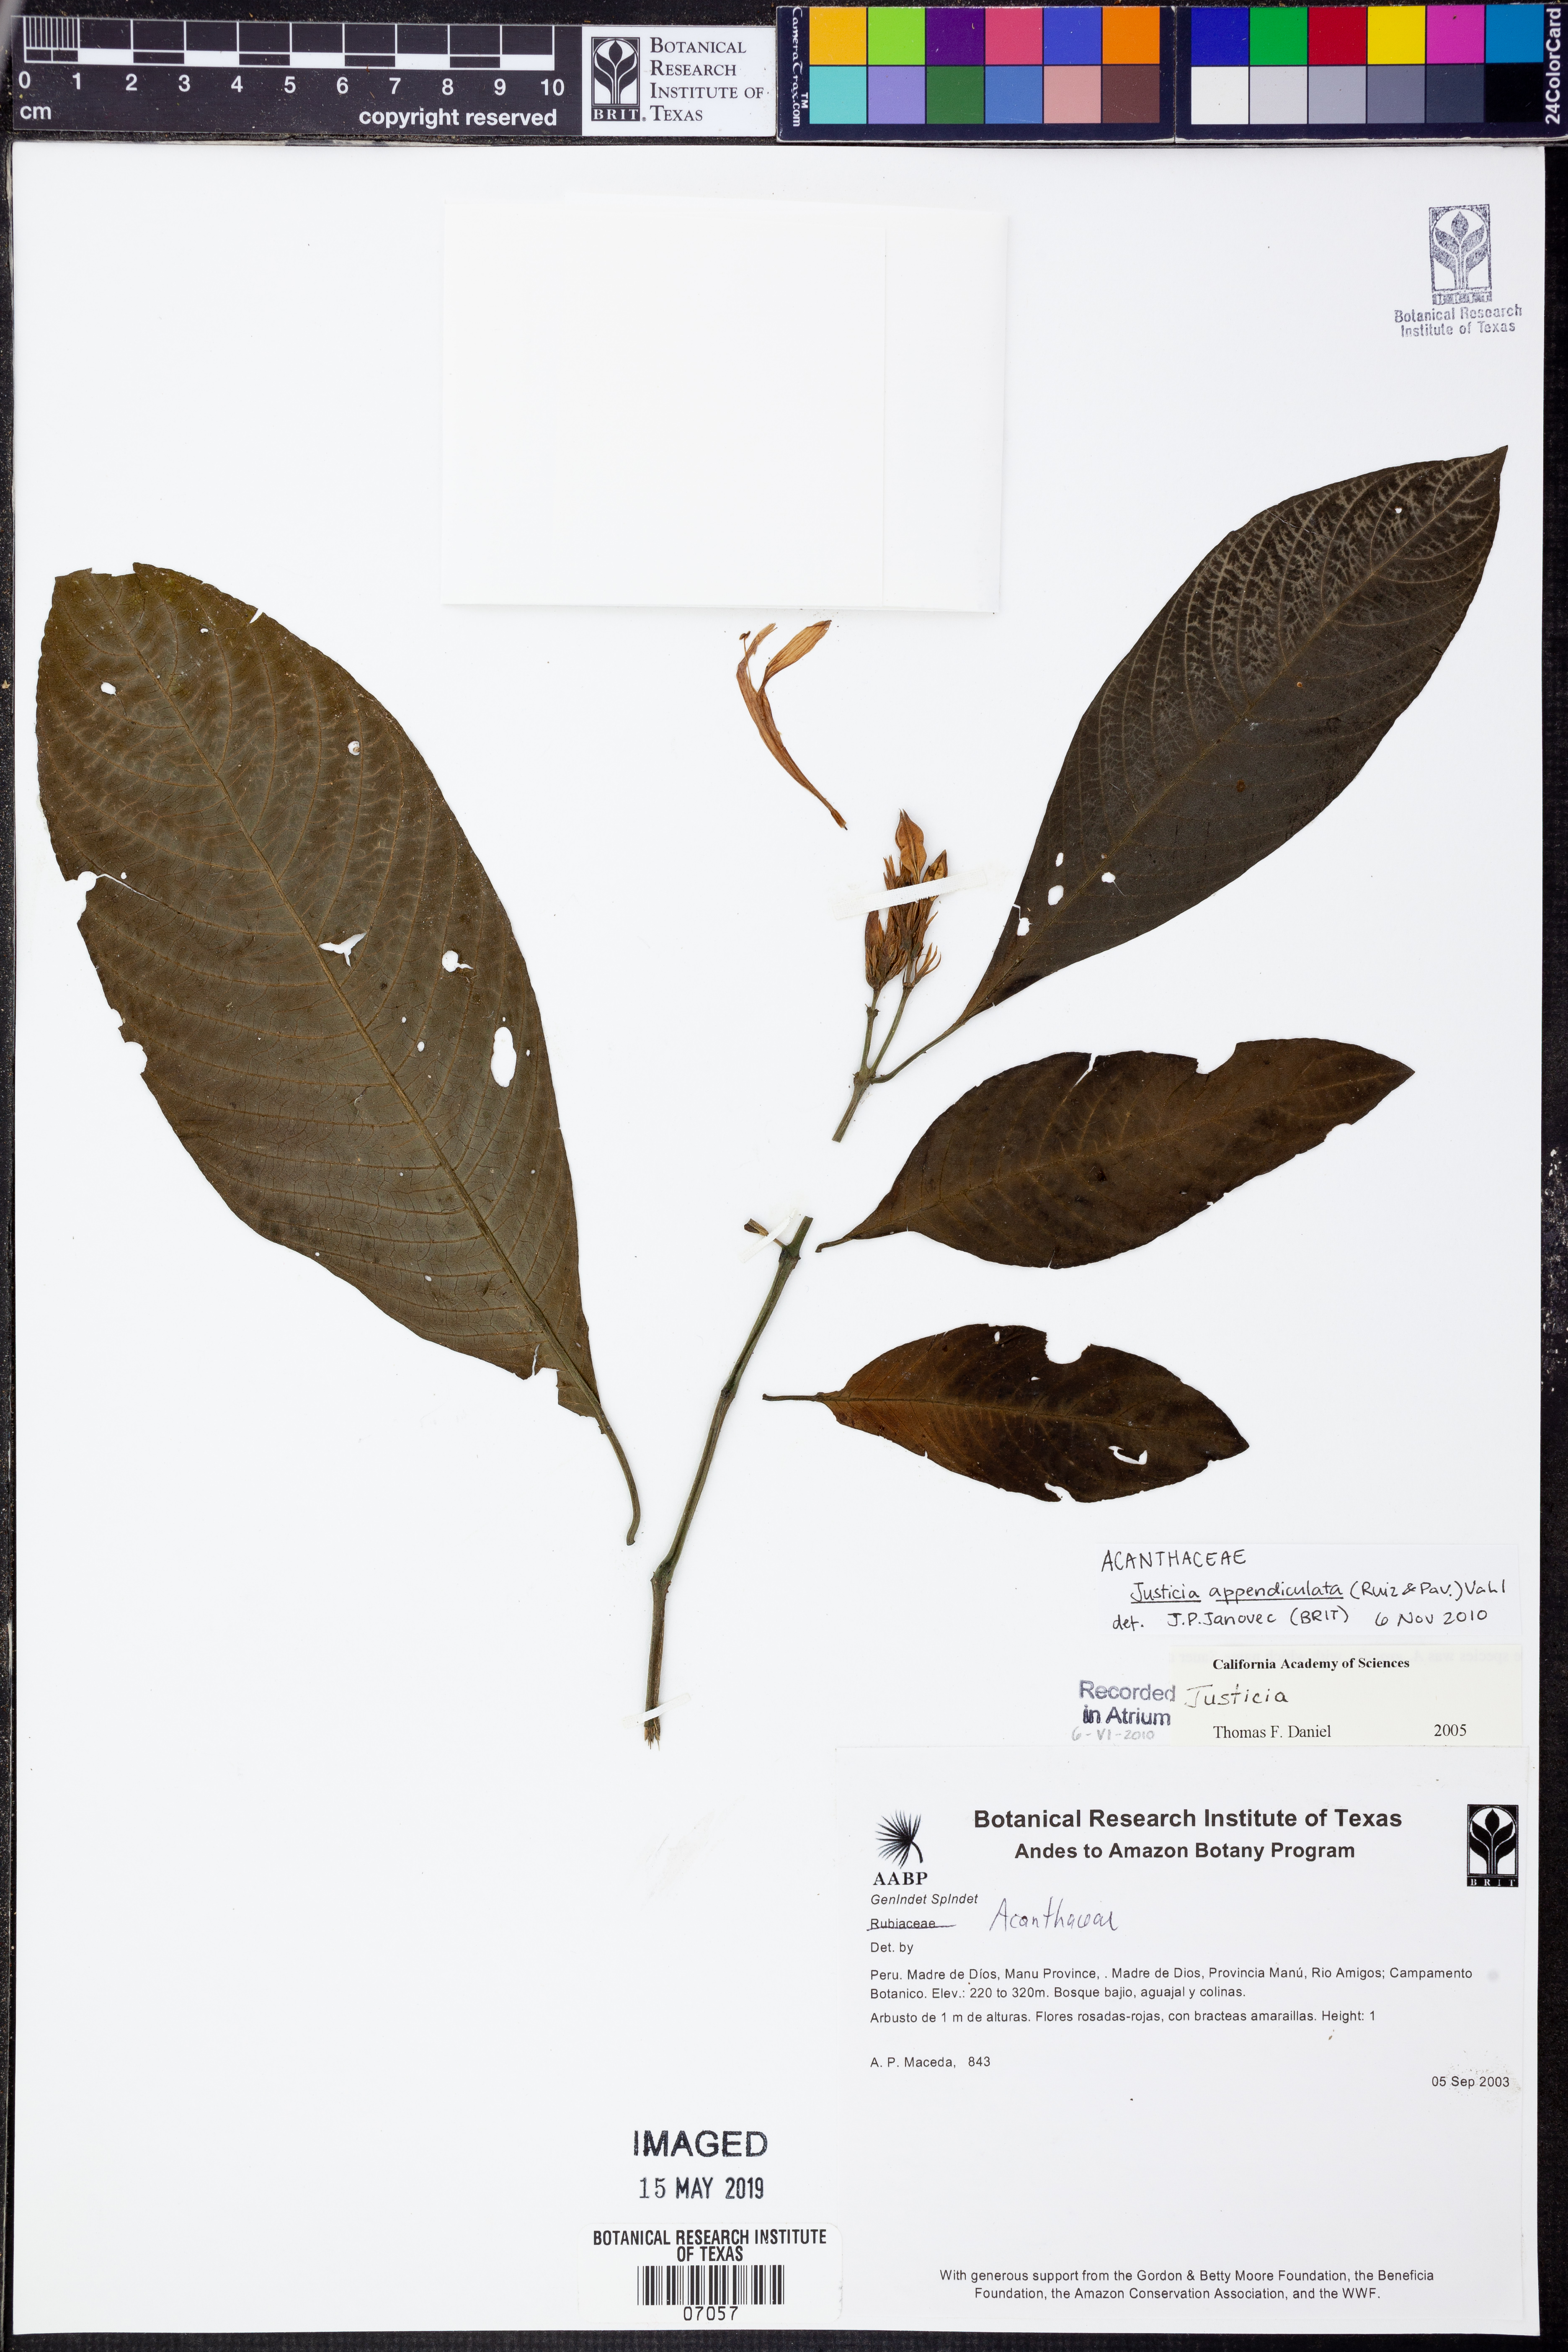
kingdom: Plantae
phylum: Tracheophyta
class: Magnoliopsida
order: Lamiales
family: Acanthaceae
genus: Dianthera
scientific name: Dianthera appendiculata
